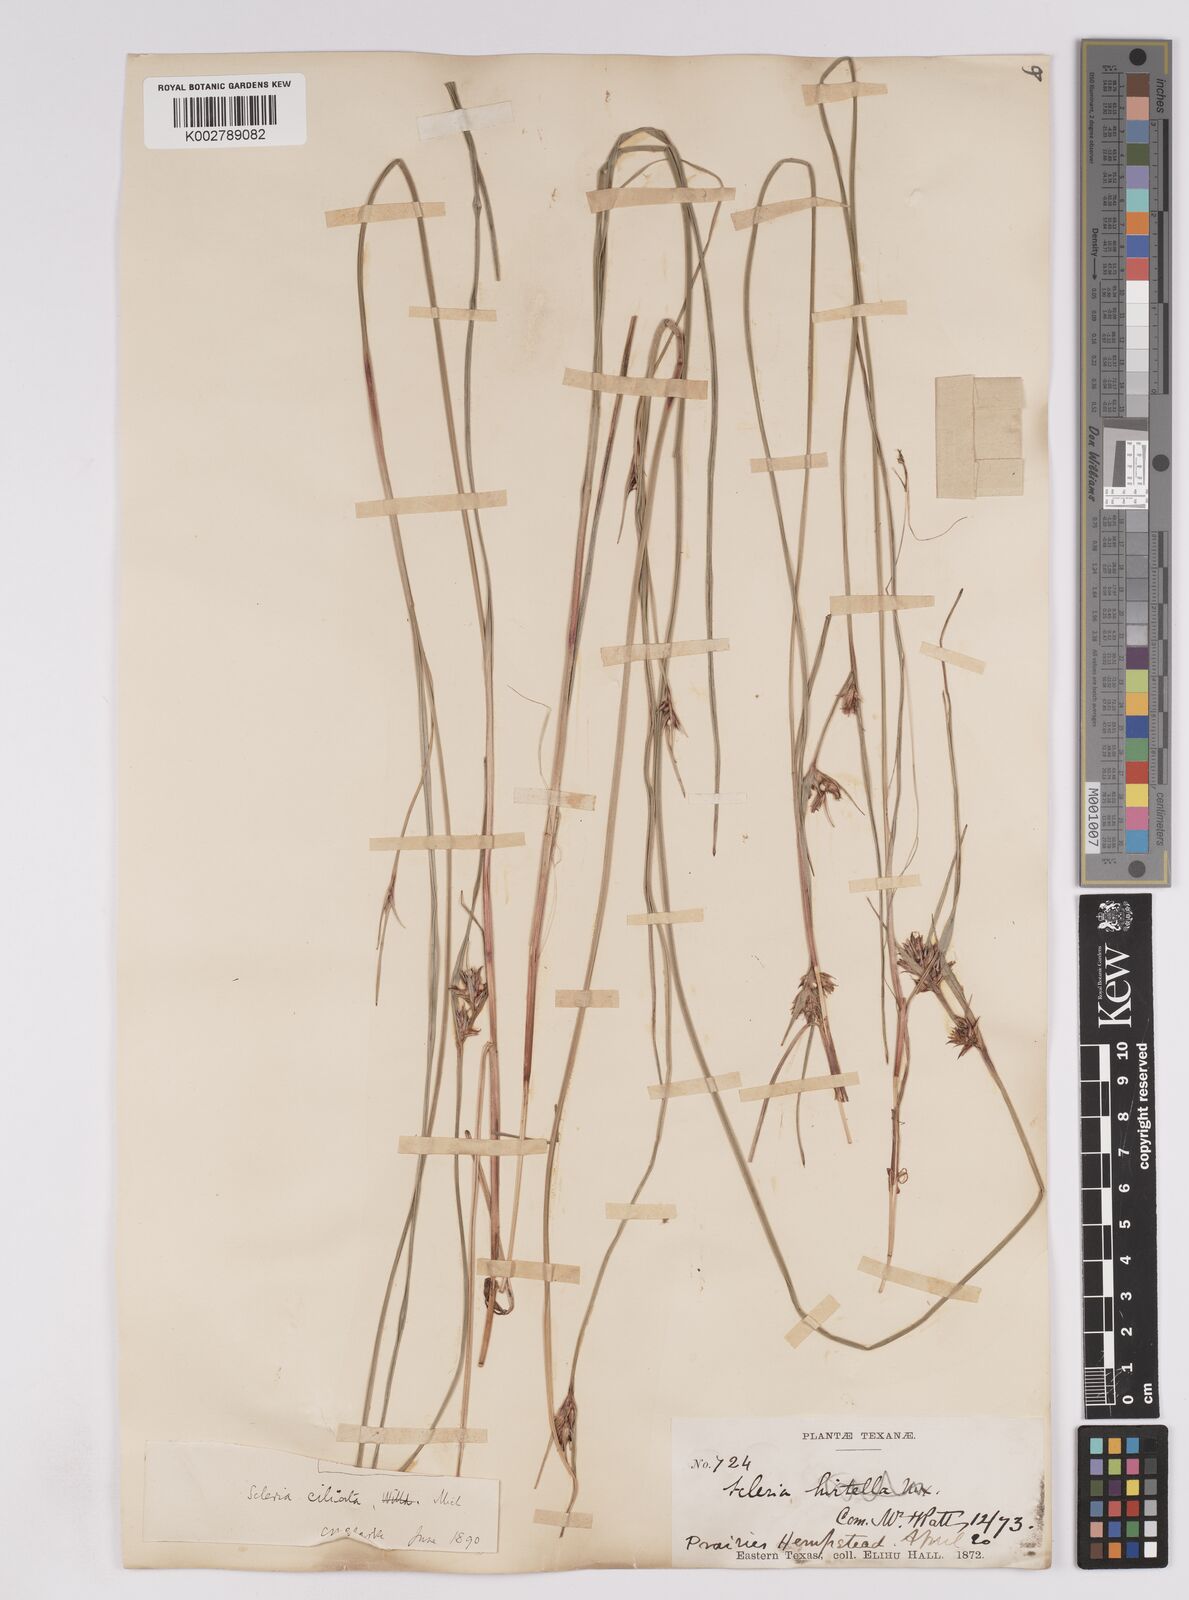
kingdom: Plantae
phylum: Tracheophyta
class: Liliopsida
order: Poales
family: Cyperaceae
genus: Scleria
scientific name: Scleria ciliata
